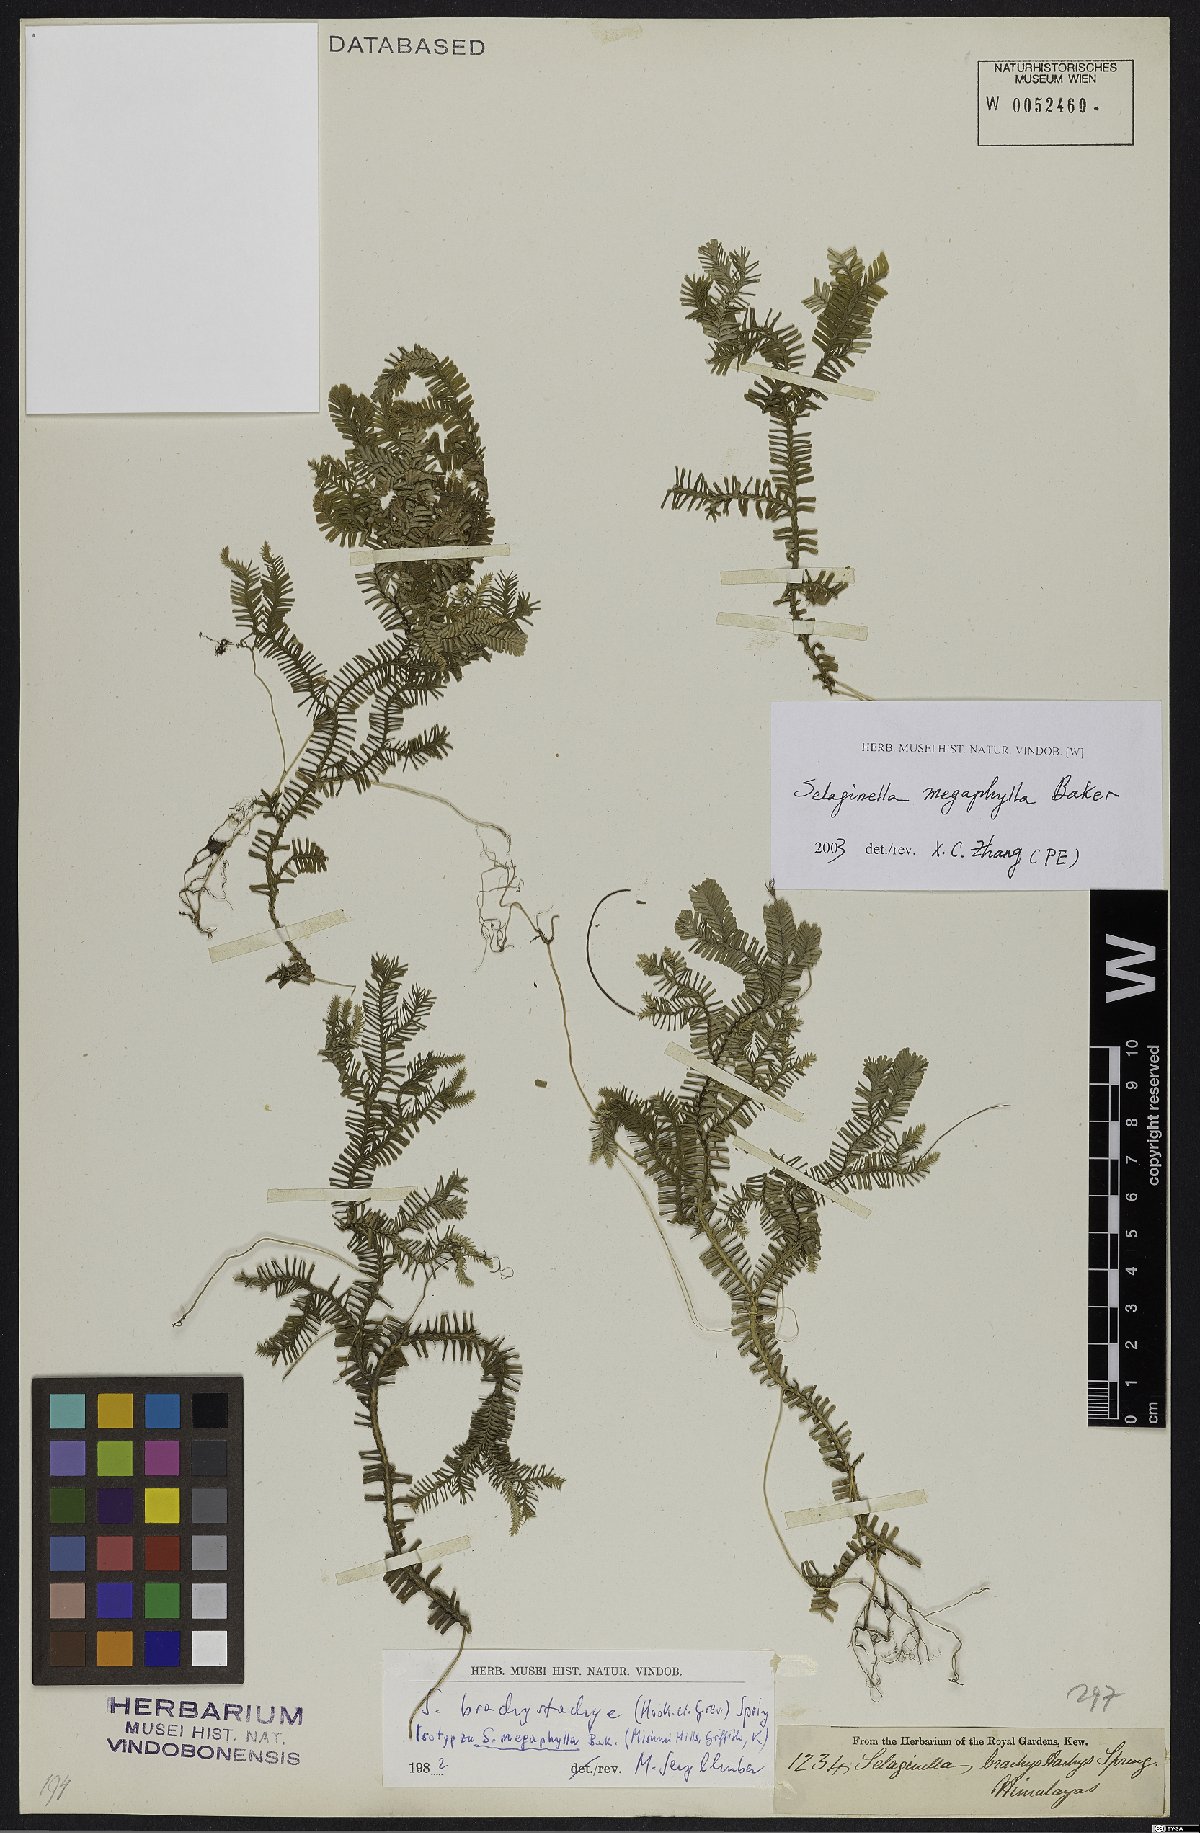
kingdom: Plantae
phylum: Tracheophyta
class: Lycopodiopsida
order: Selaginellales
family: Selaginellaceae
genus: Selaginella
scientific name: Selaginella megaphylla
